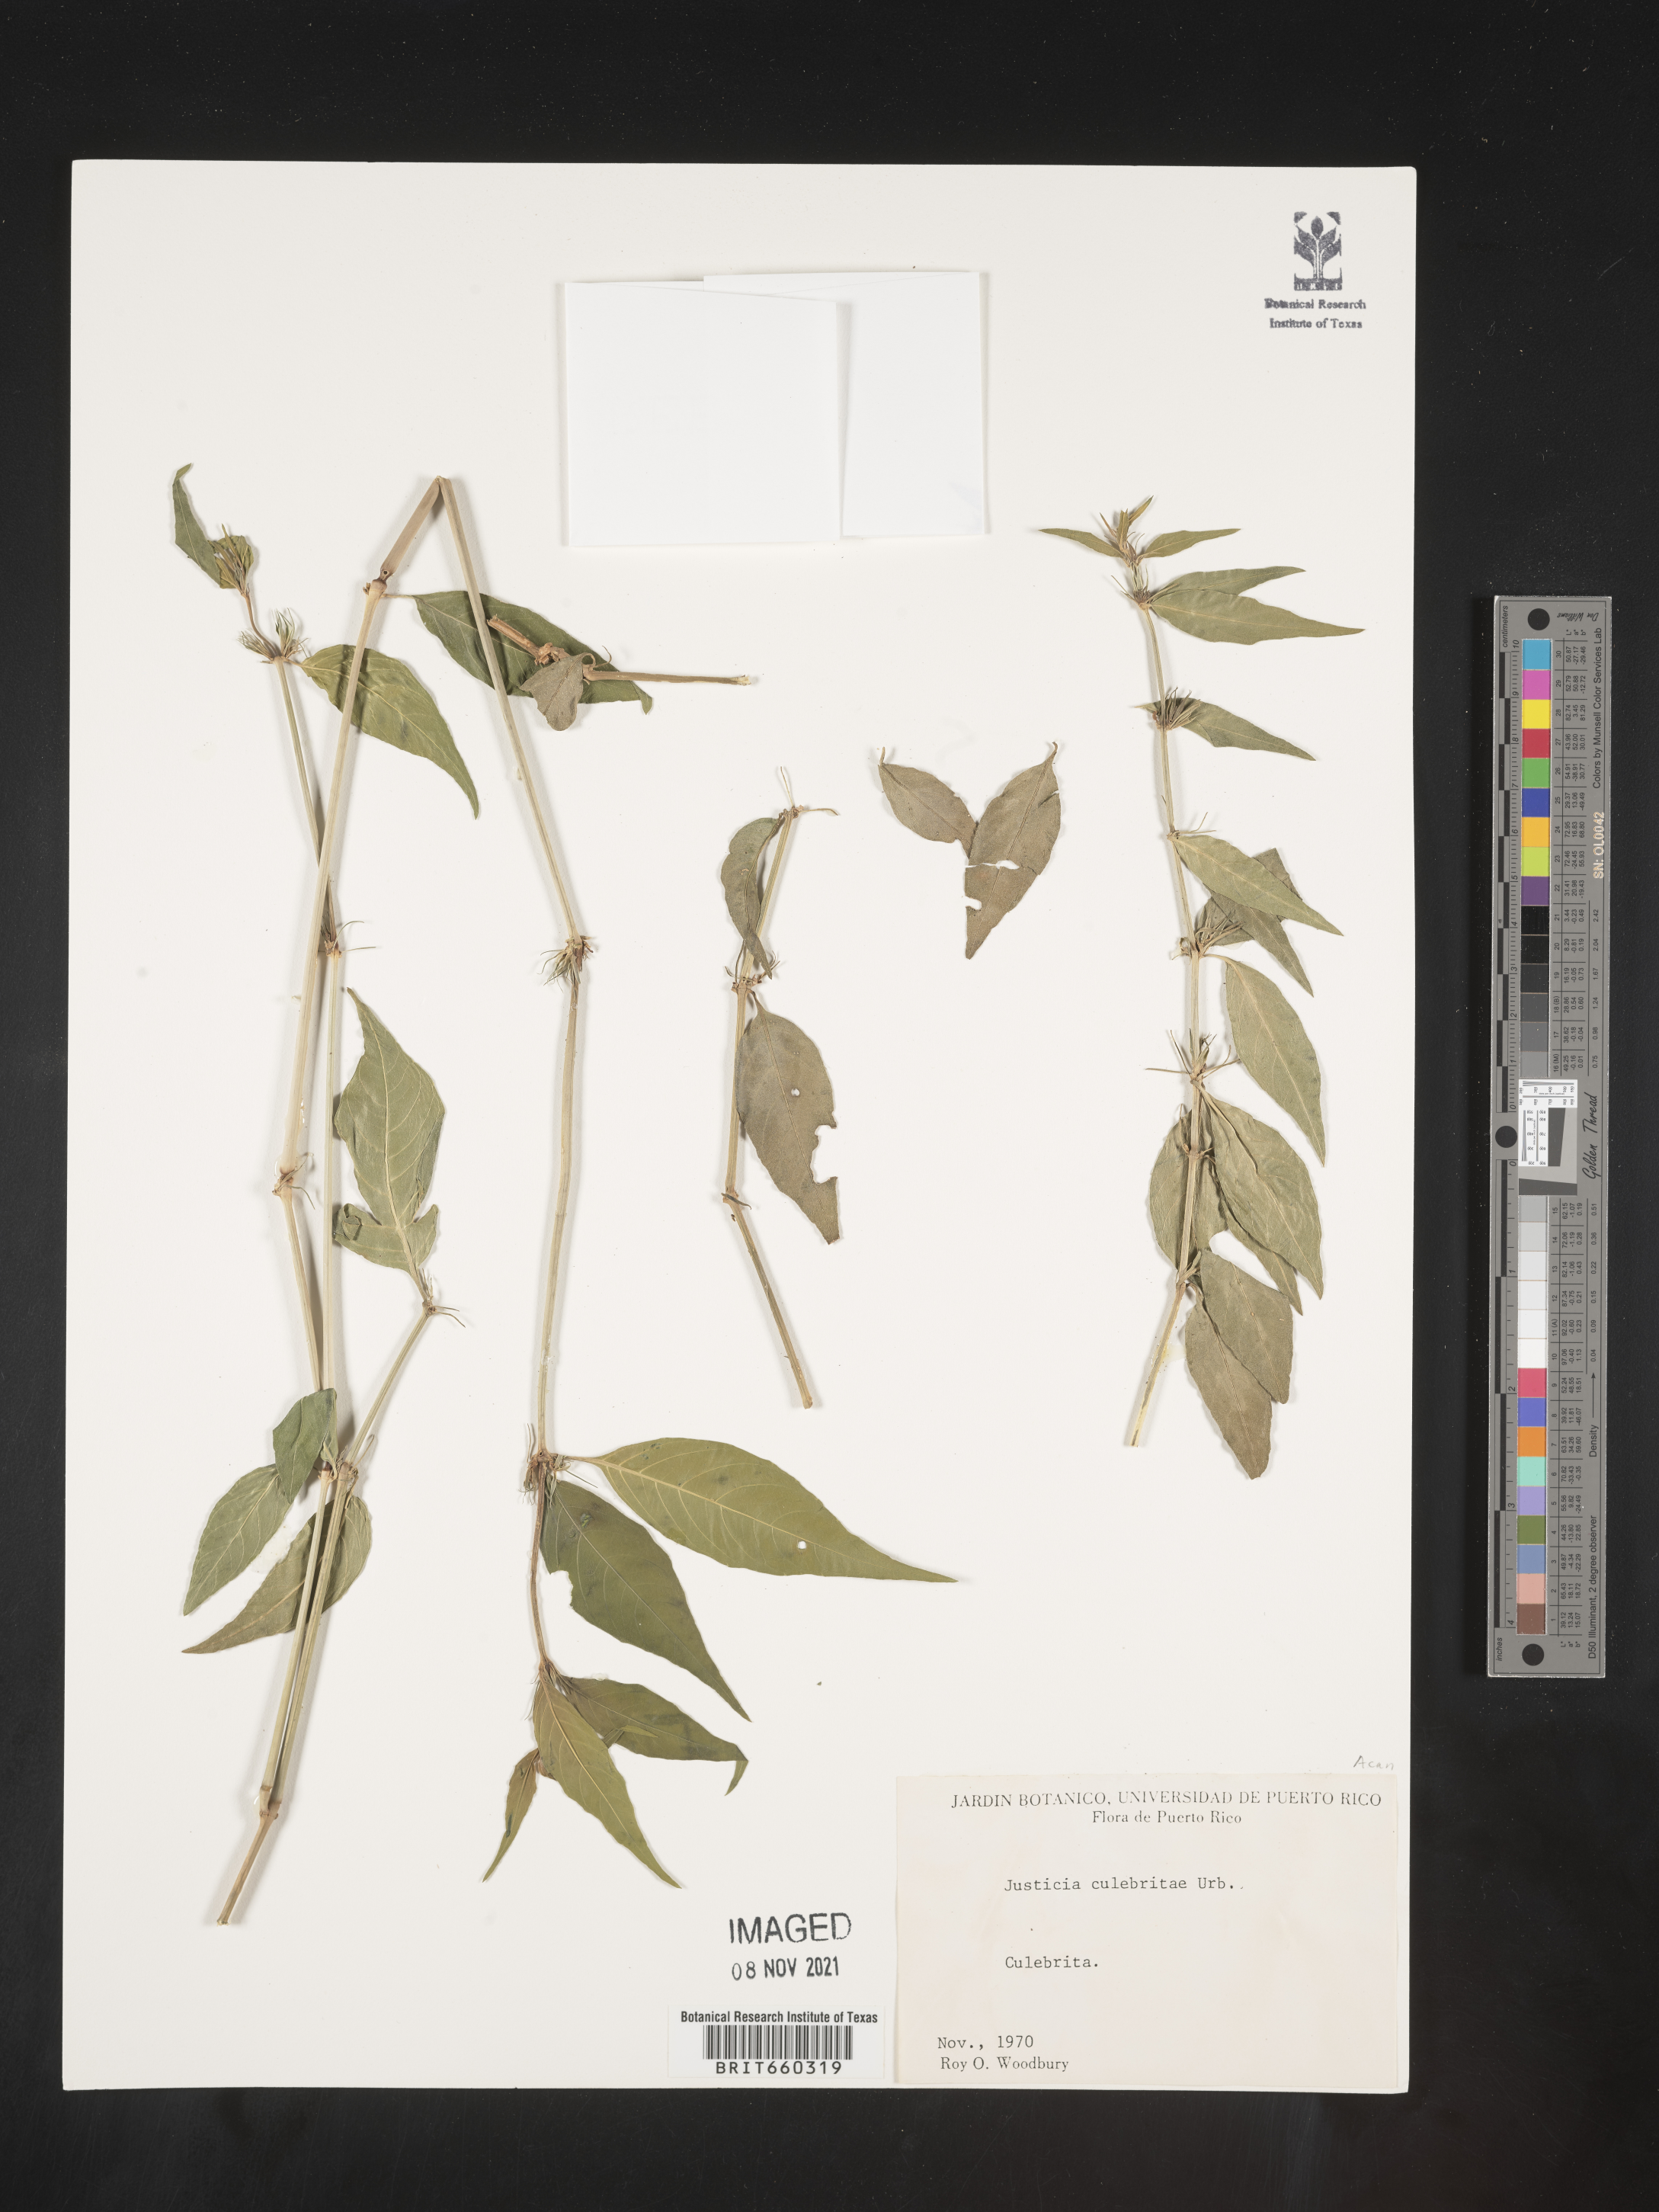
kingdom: Plantae
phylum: Tracheophyta
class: Magnoliopsida
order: Lamiales
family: Acanthaceae
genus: Justicia
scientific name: Justicia
